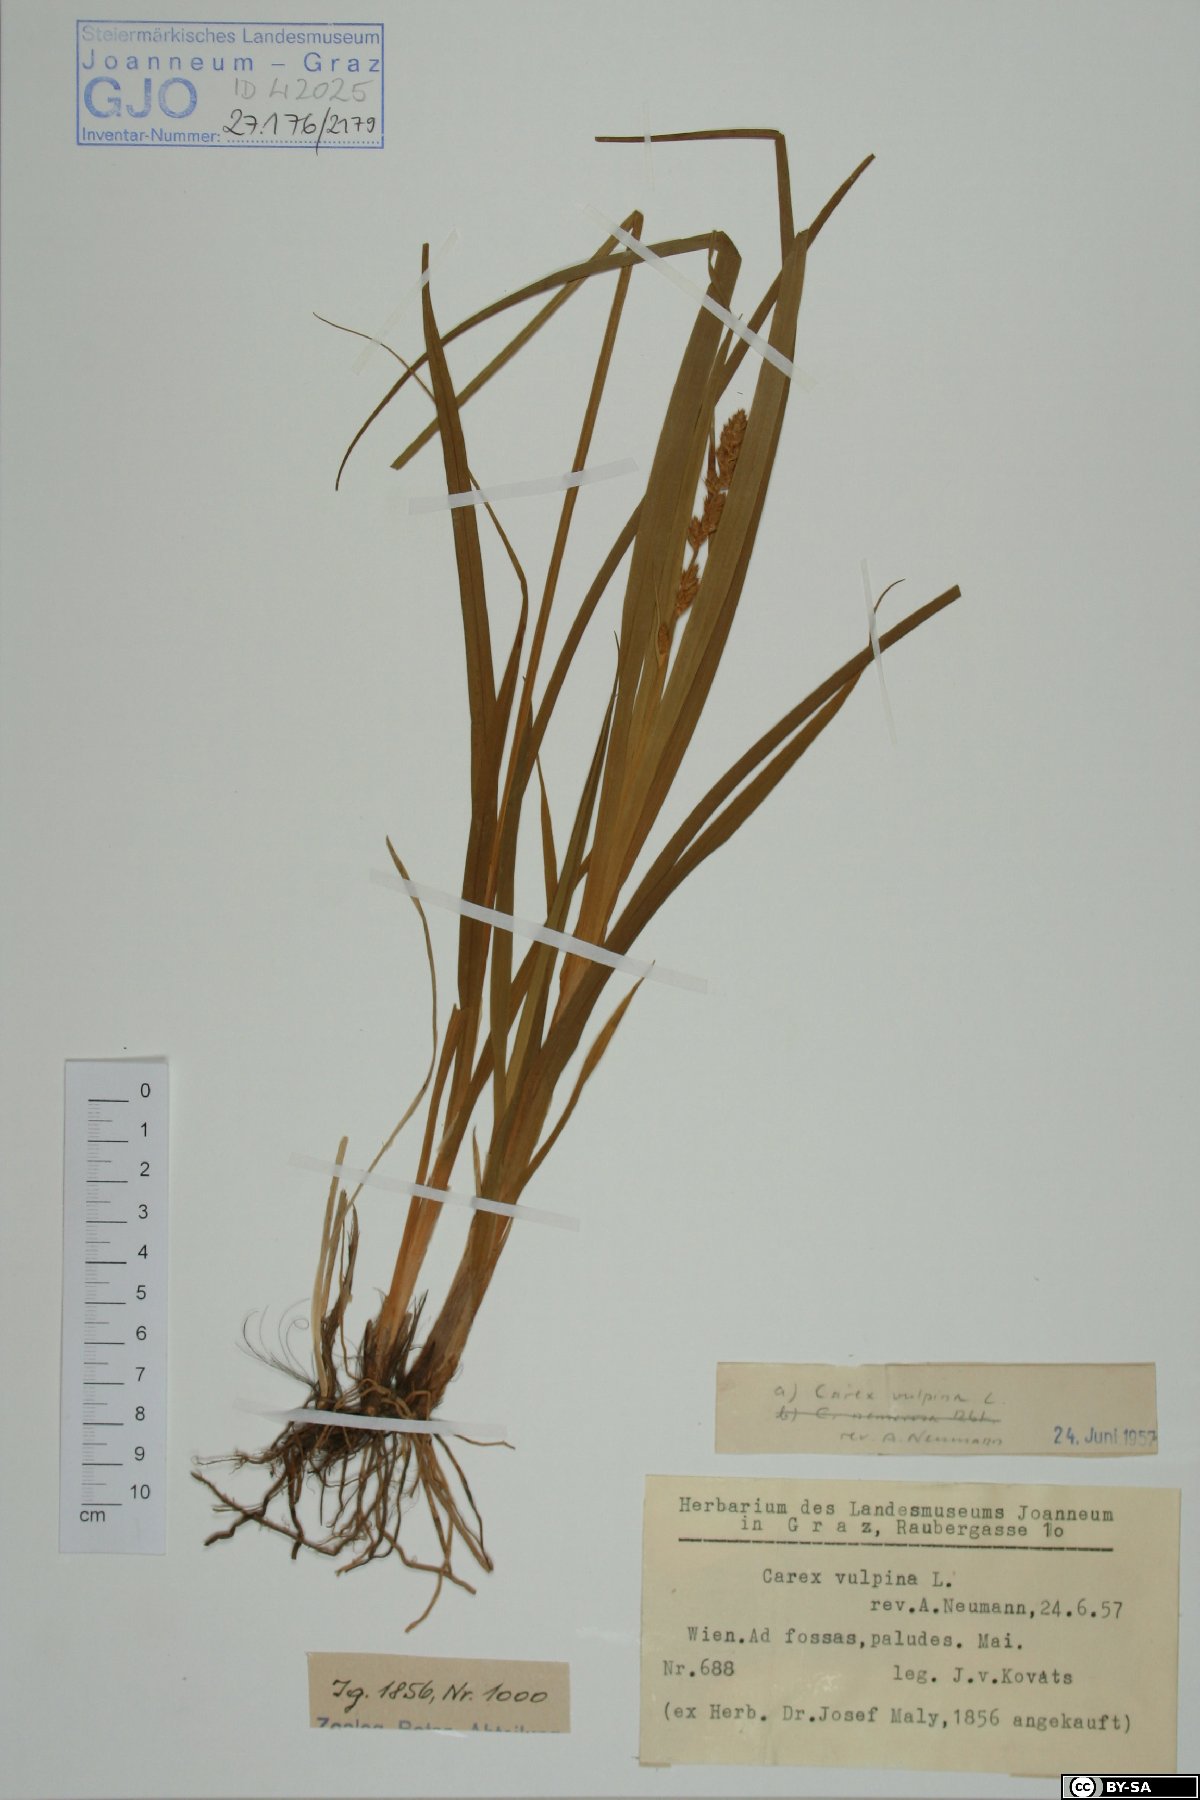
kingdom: Plantae
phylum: Tracheophyta
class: Liliopsida
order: Poales
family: Cyperaceae
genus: Carex
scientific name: Carex vulpina
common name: True fox-sedge
